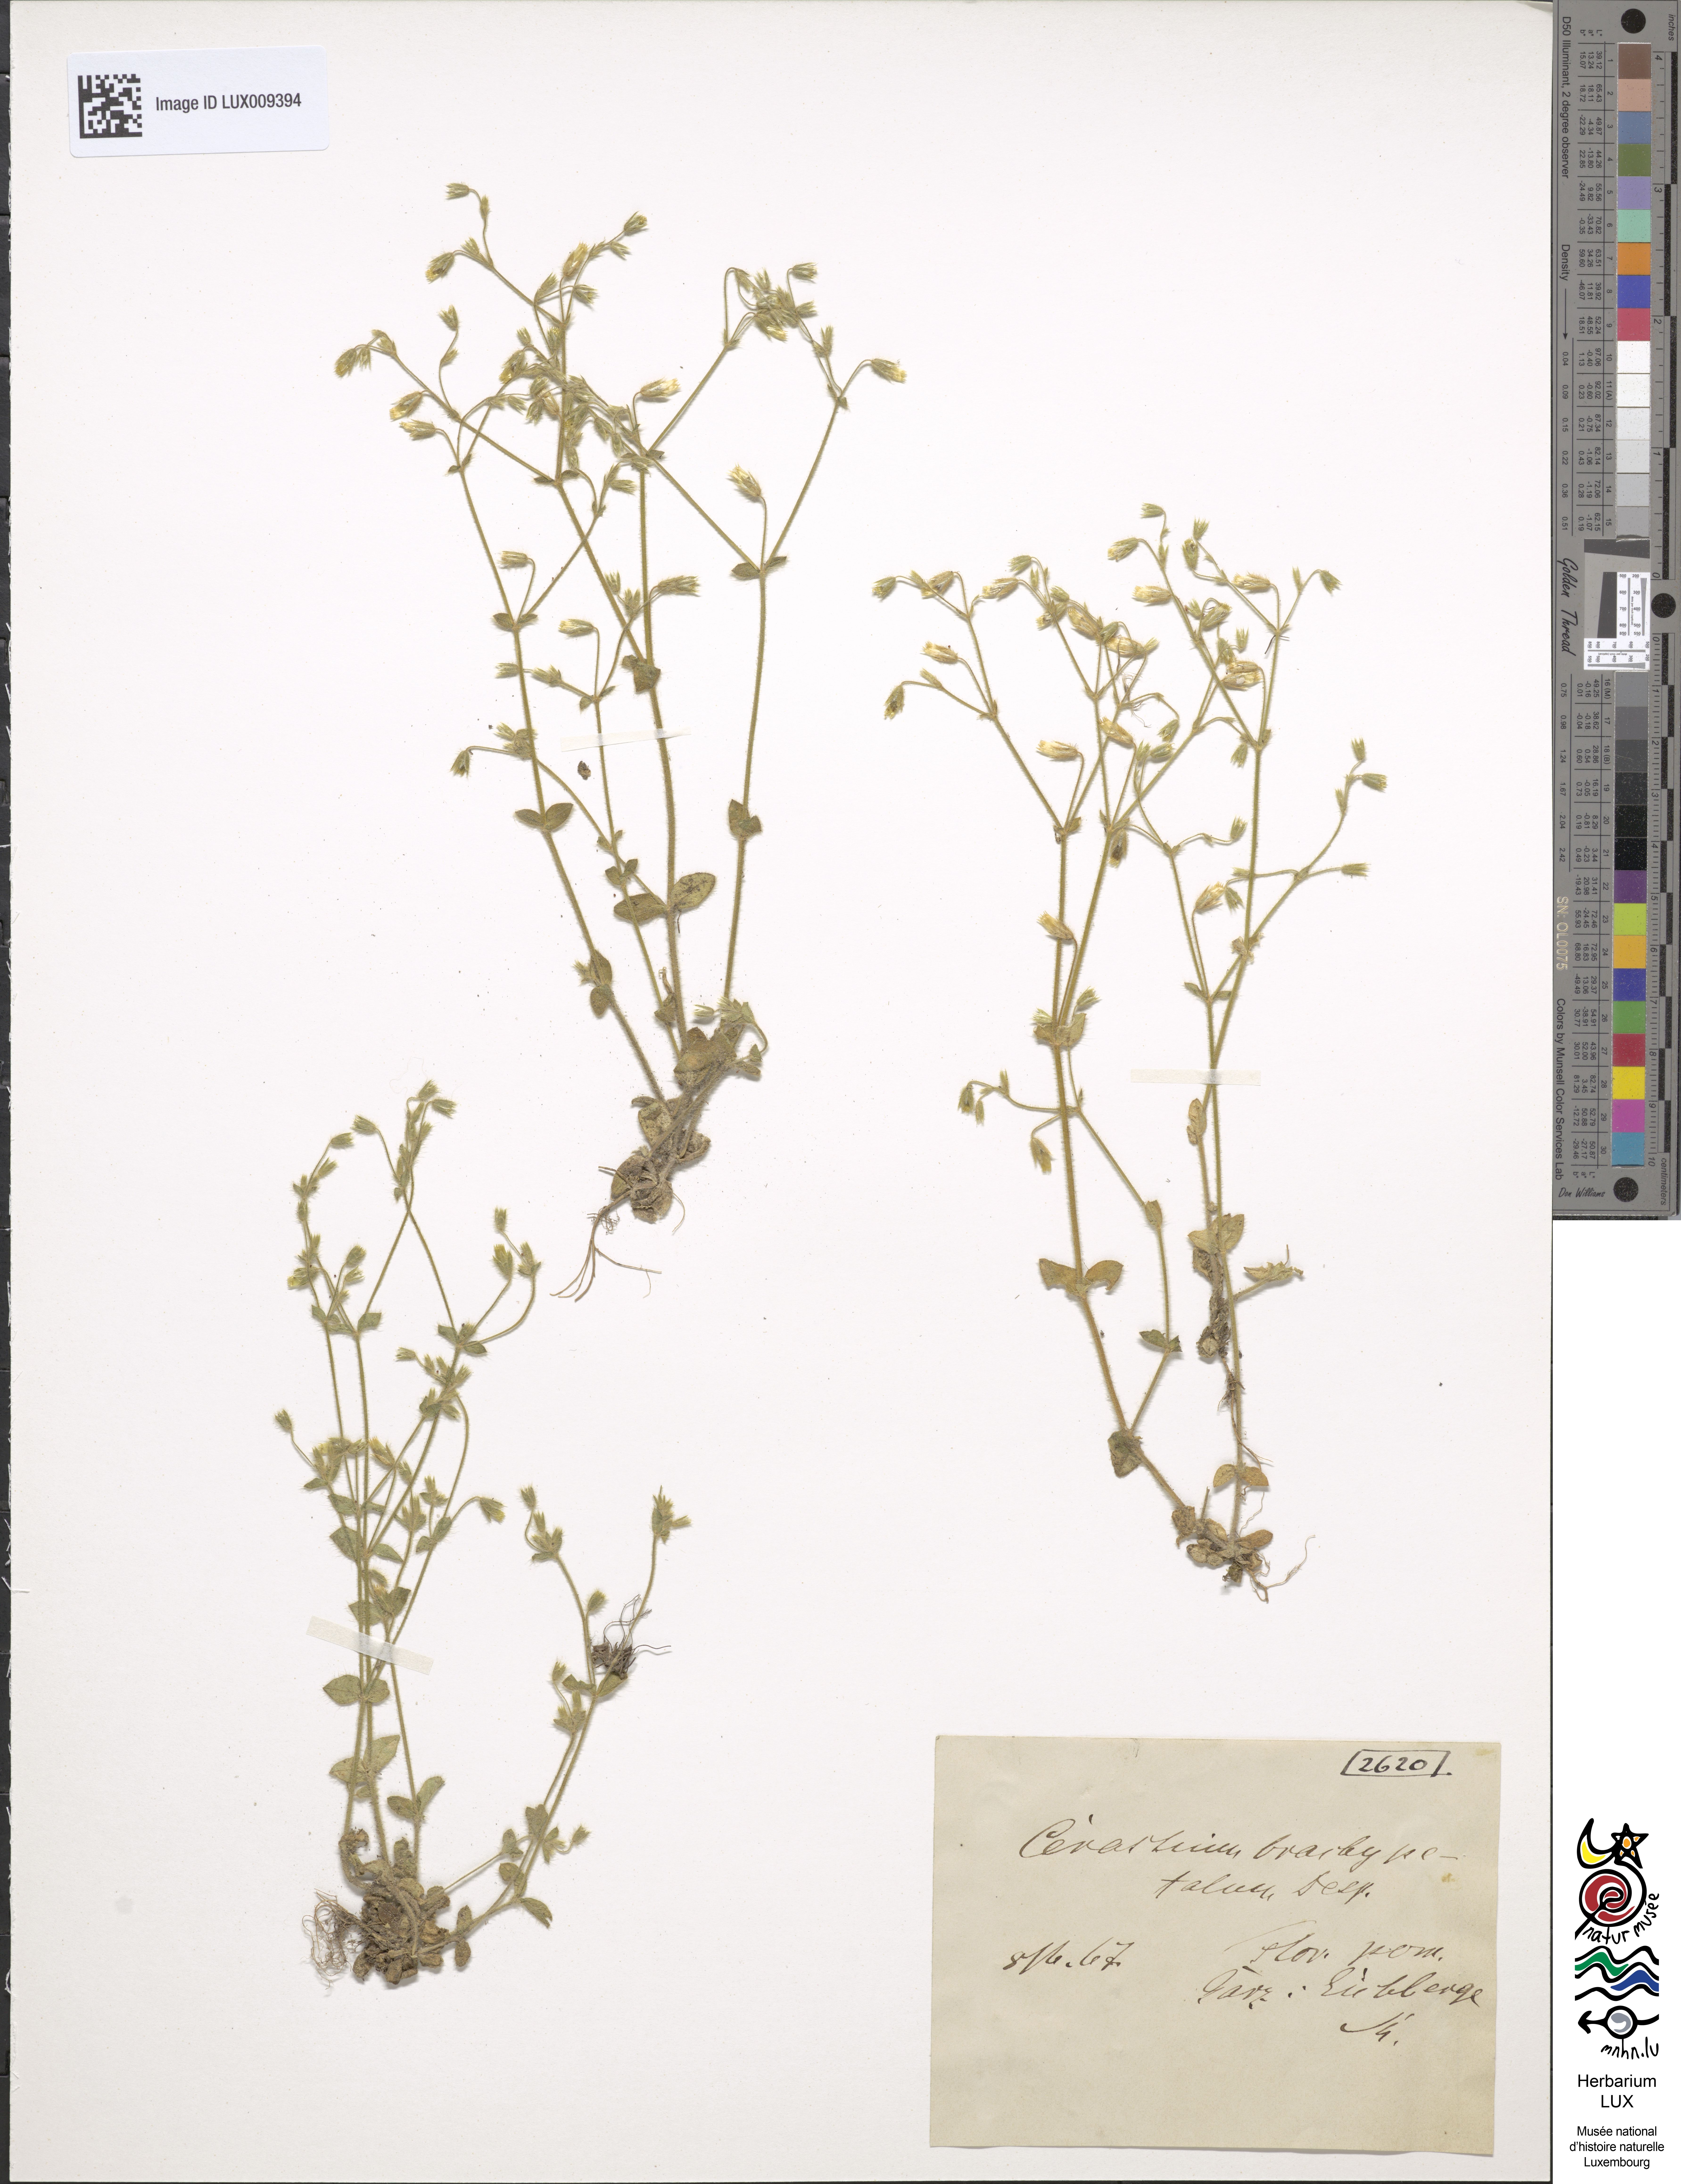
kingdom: Plantae
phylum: Tracheophyta
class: Magnoliopsida
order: Caryophyllales
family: Caryophyllaceae
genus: Cerastium
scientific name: Cerastium brachypetalum
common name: Grey mouse-ear
